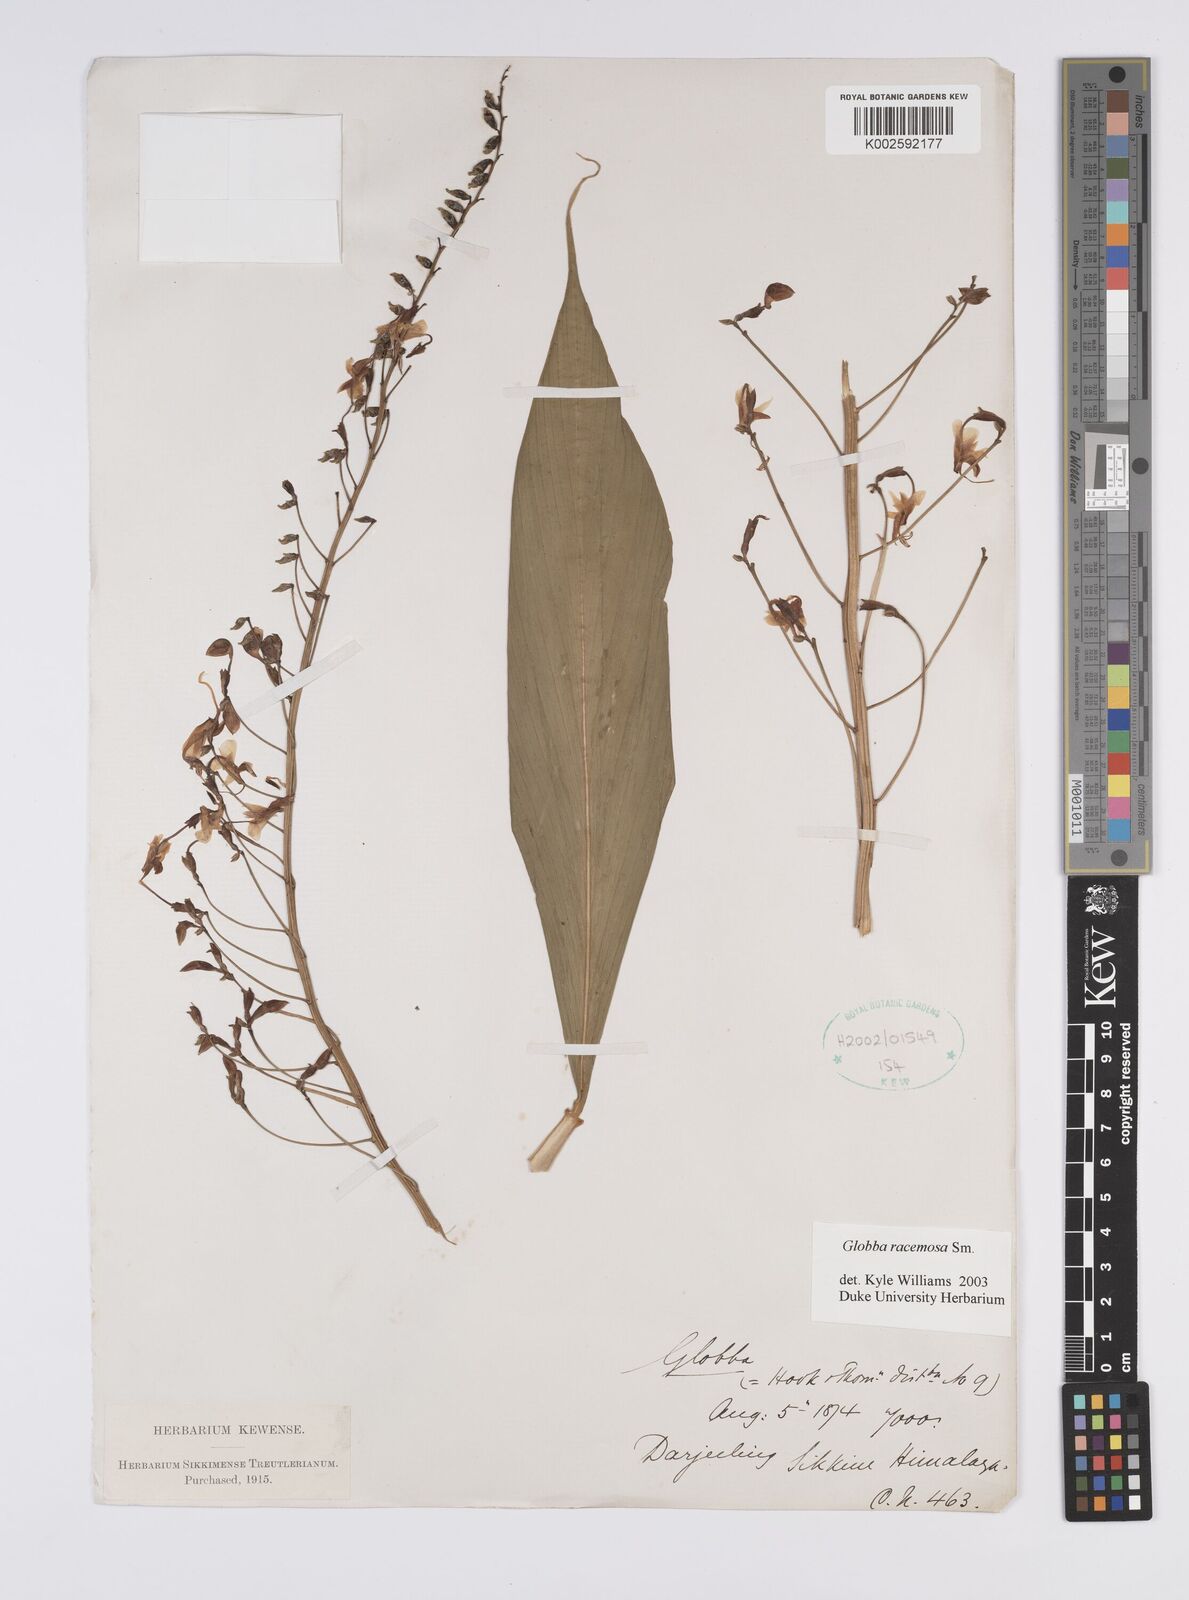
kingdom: Plantae
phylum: Tracheophyta
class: Liliopsida
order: Zingiberales
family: Zingiberaceae
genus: Globba
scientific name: Globba racemosa
